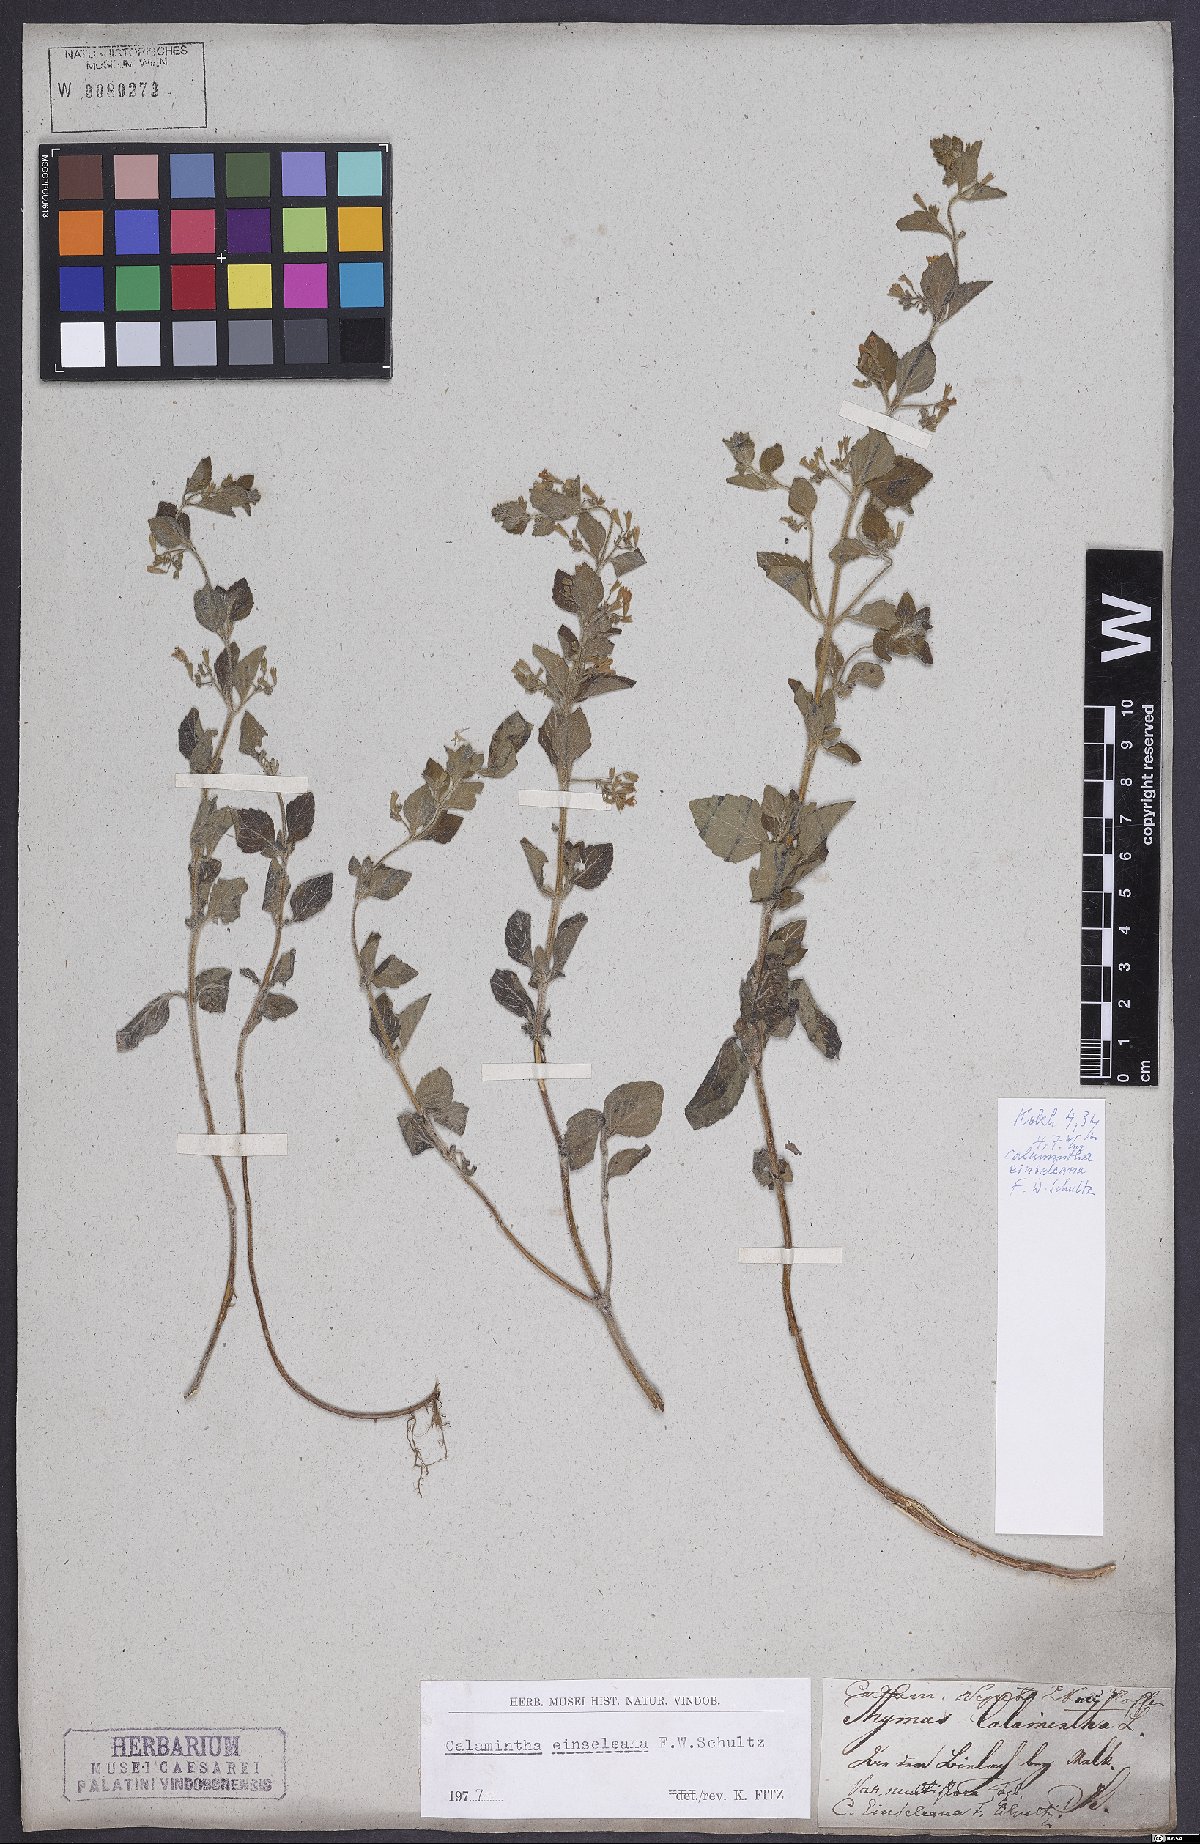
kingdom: Plantae
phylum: Tracheophyta
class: Magnoliopsida
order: Lamiales
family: Lamiaceae
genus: Clinopodium
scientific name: Clinopodium nepeta
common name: Lesser calamint
